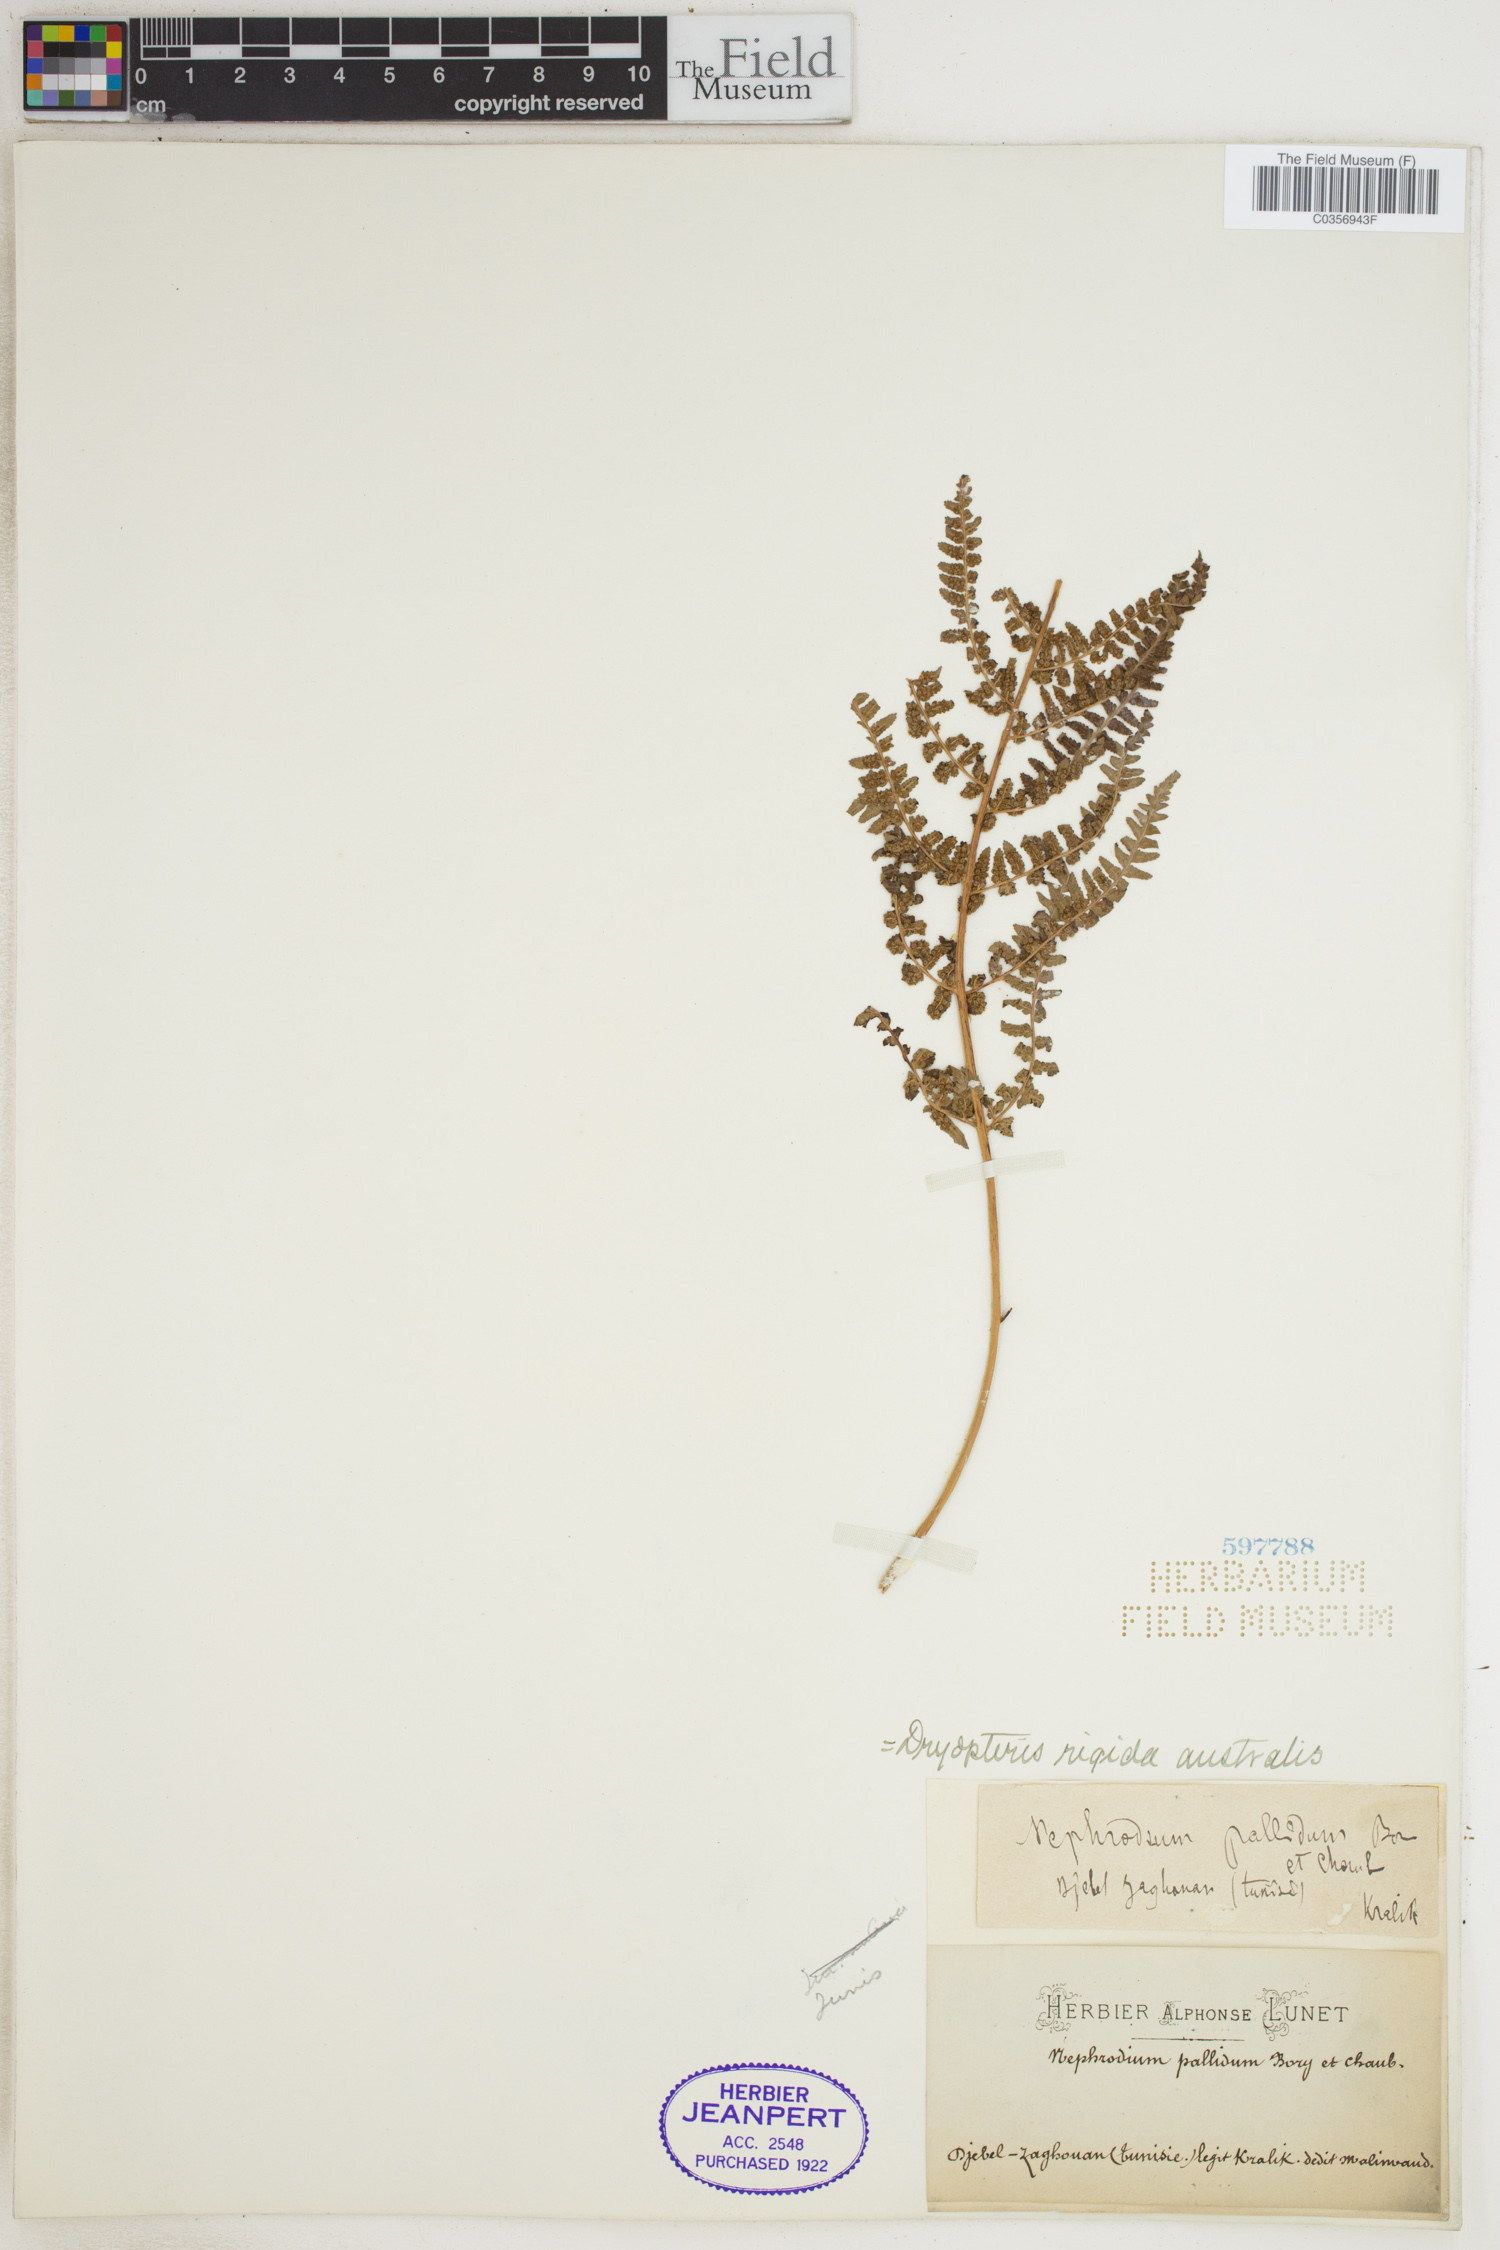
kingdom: Plantae
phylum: Tracheophyta
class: Polypodiopsida
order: Polypodiales
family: Dryopteridaceae
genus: Dryopteris
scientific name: Dryopteris
